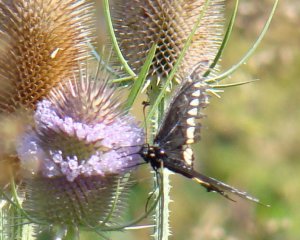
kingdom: Animalia
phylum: Arthropoda
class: Insecta
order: Lepidoptera
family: Papilionidae
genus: Papilio
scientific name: Papilio polyxenes
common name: Black Swallowtail
